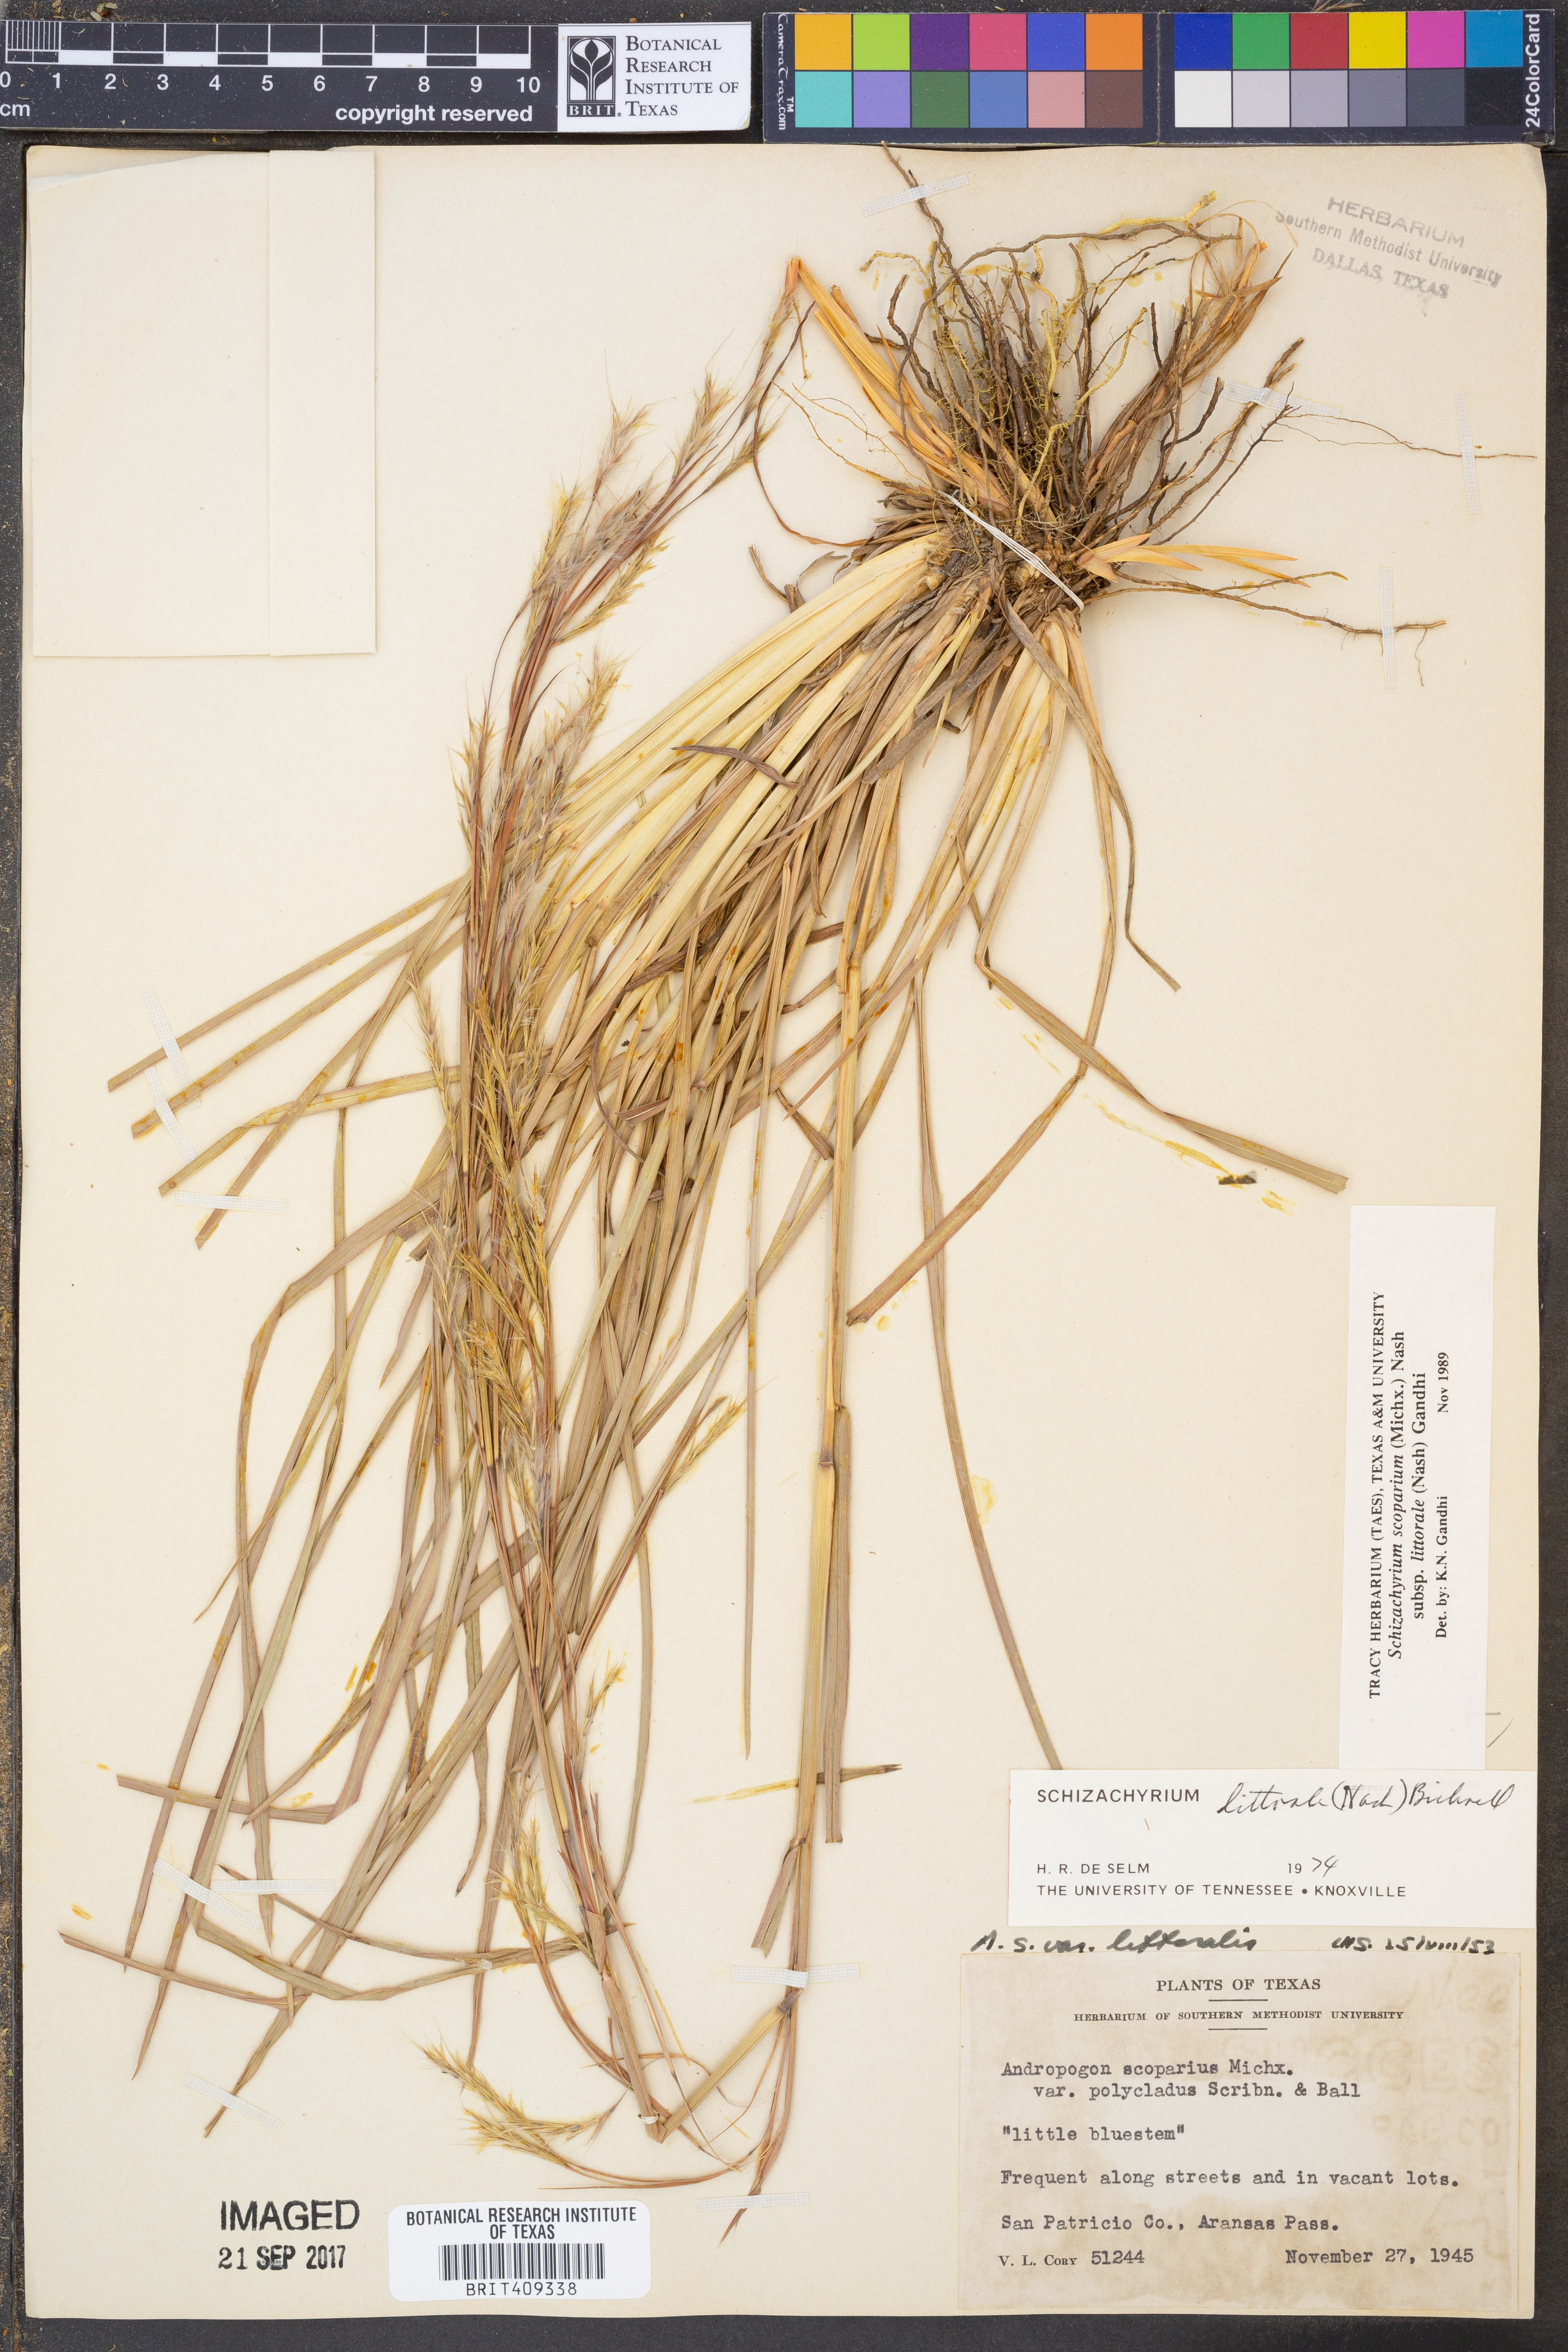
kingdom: Plantae
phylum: Tracheophyta
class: Liliopsida
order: Poales
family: Poaceae
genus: Schizachyrium
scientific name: Schizachyrium scoparium
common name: Little bluestem
